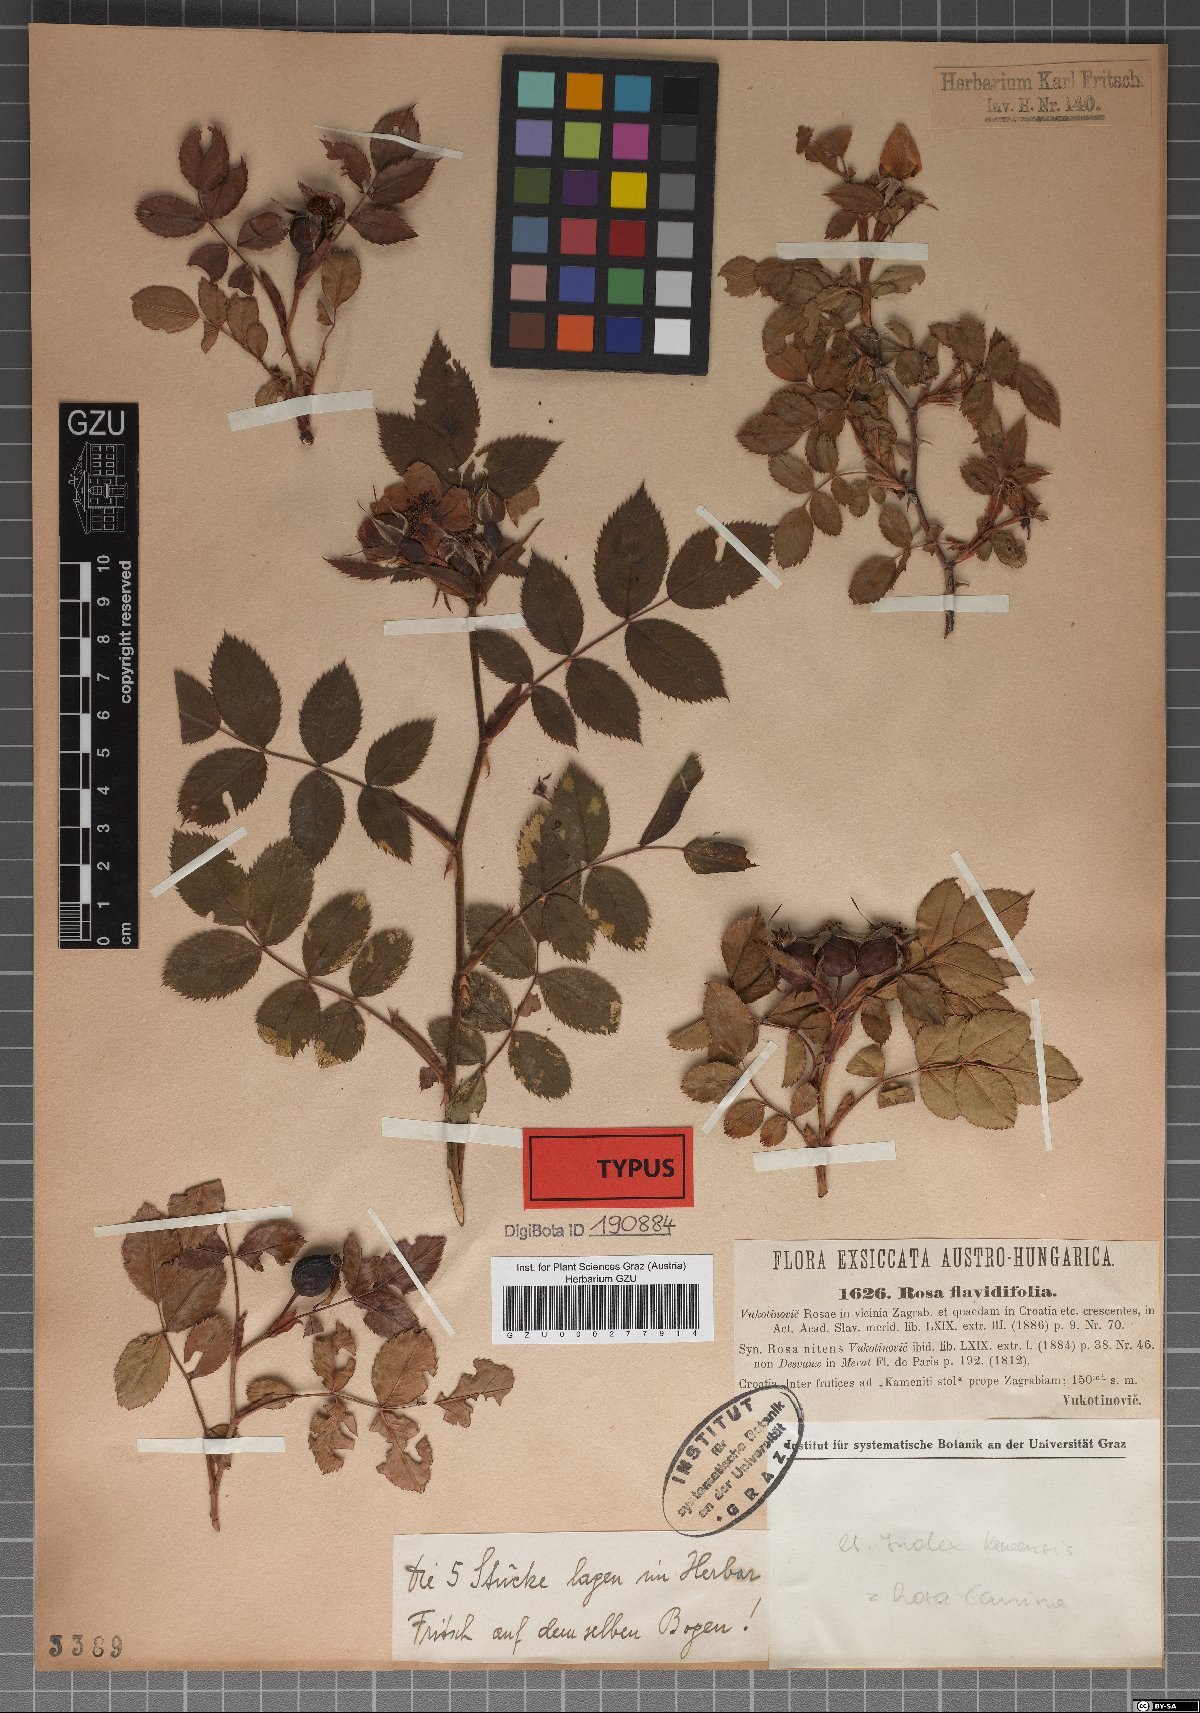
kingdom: Plantae
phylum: Tracheophyta
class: Magnoliopsida
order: Rosales
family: Rosaceae
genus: Rosa
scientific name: Rosa canina
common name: Dog rose
